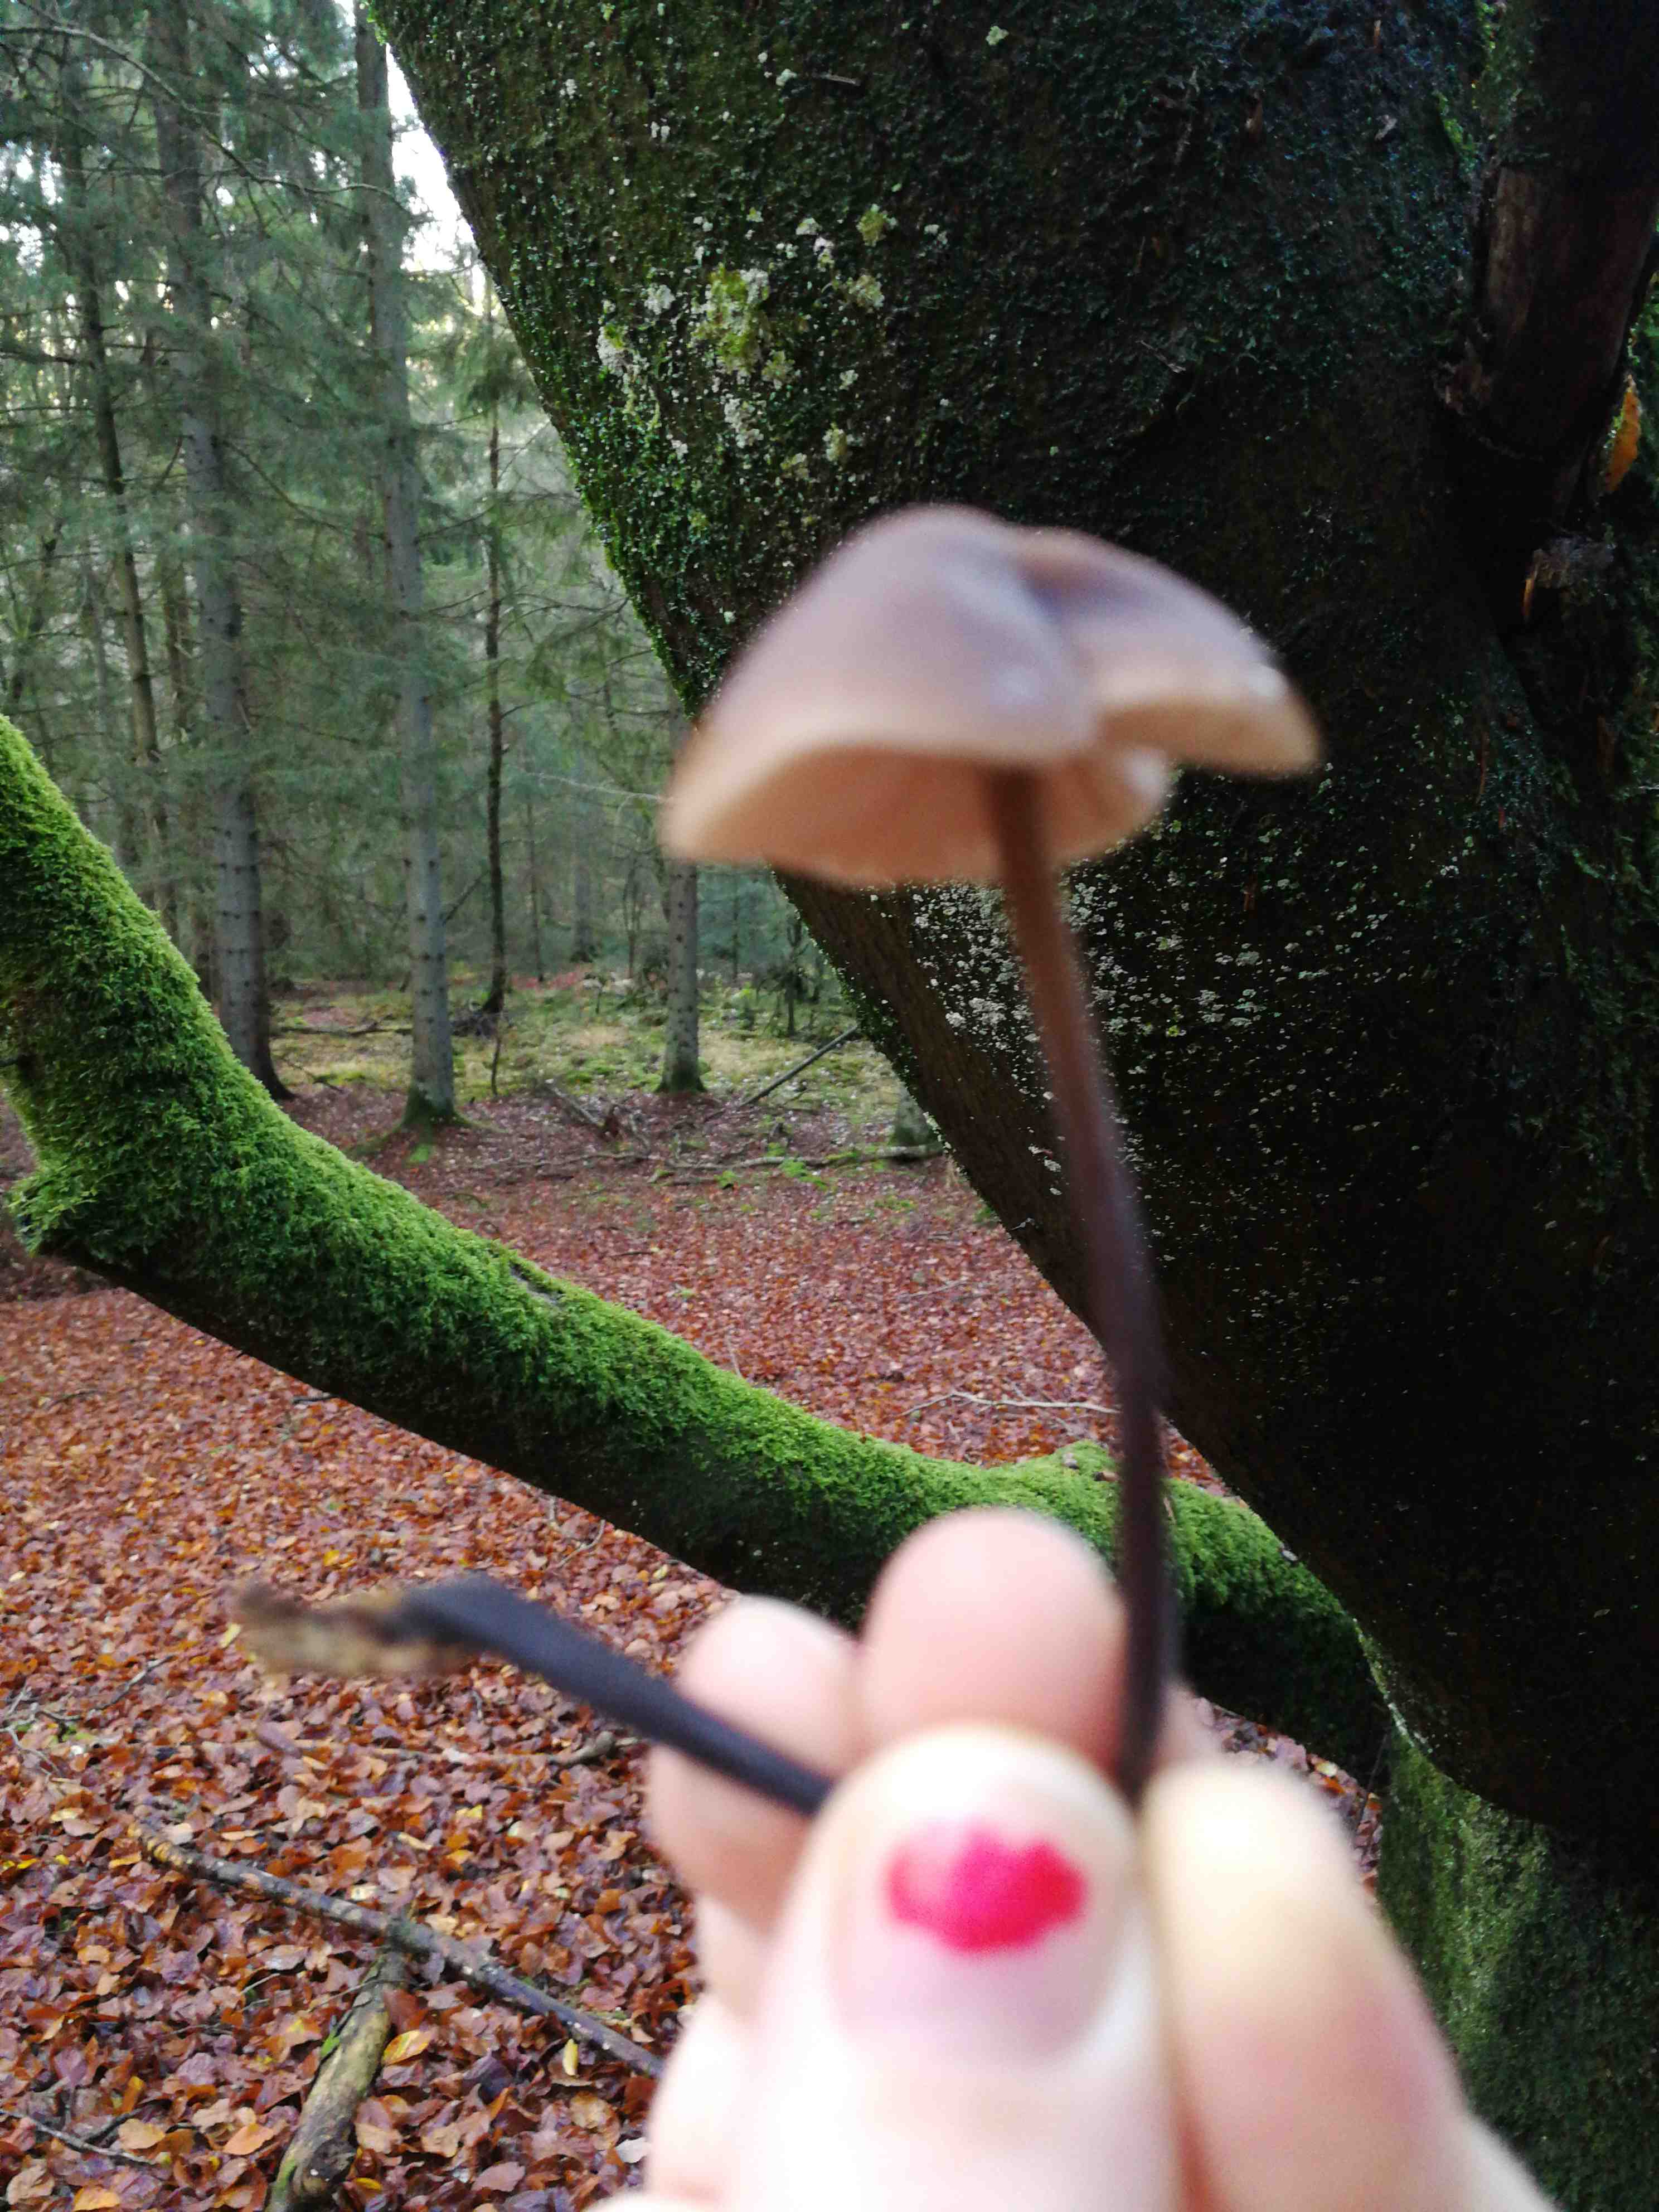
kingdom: Fungi
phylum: Basidiomycota
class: Agaricomycetes
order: Agaricales
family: Omphalotaceae
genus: Mycetinis
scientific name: Mycetinis alliaceus
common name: stor løghat
